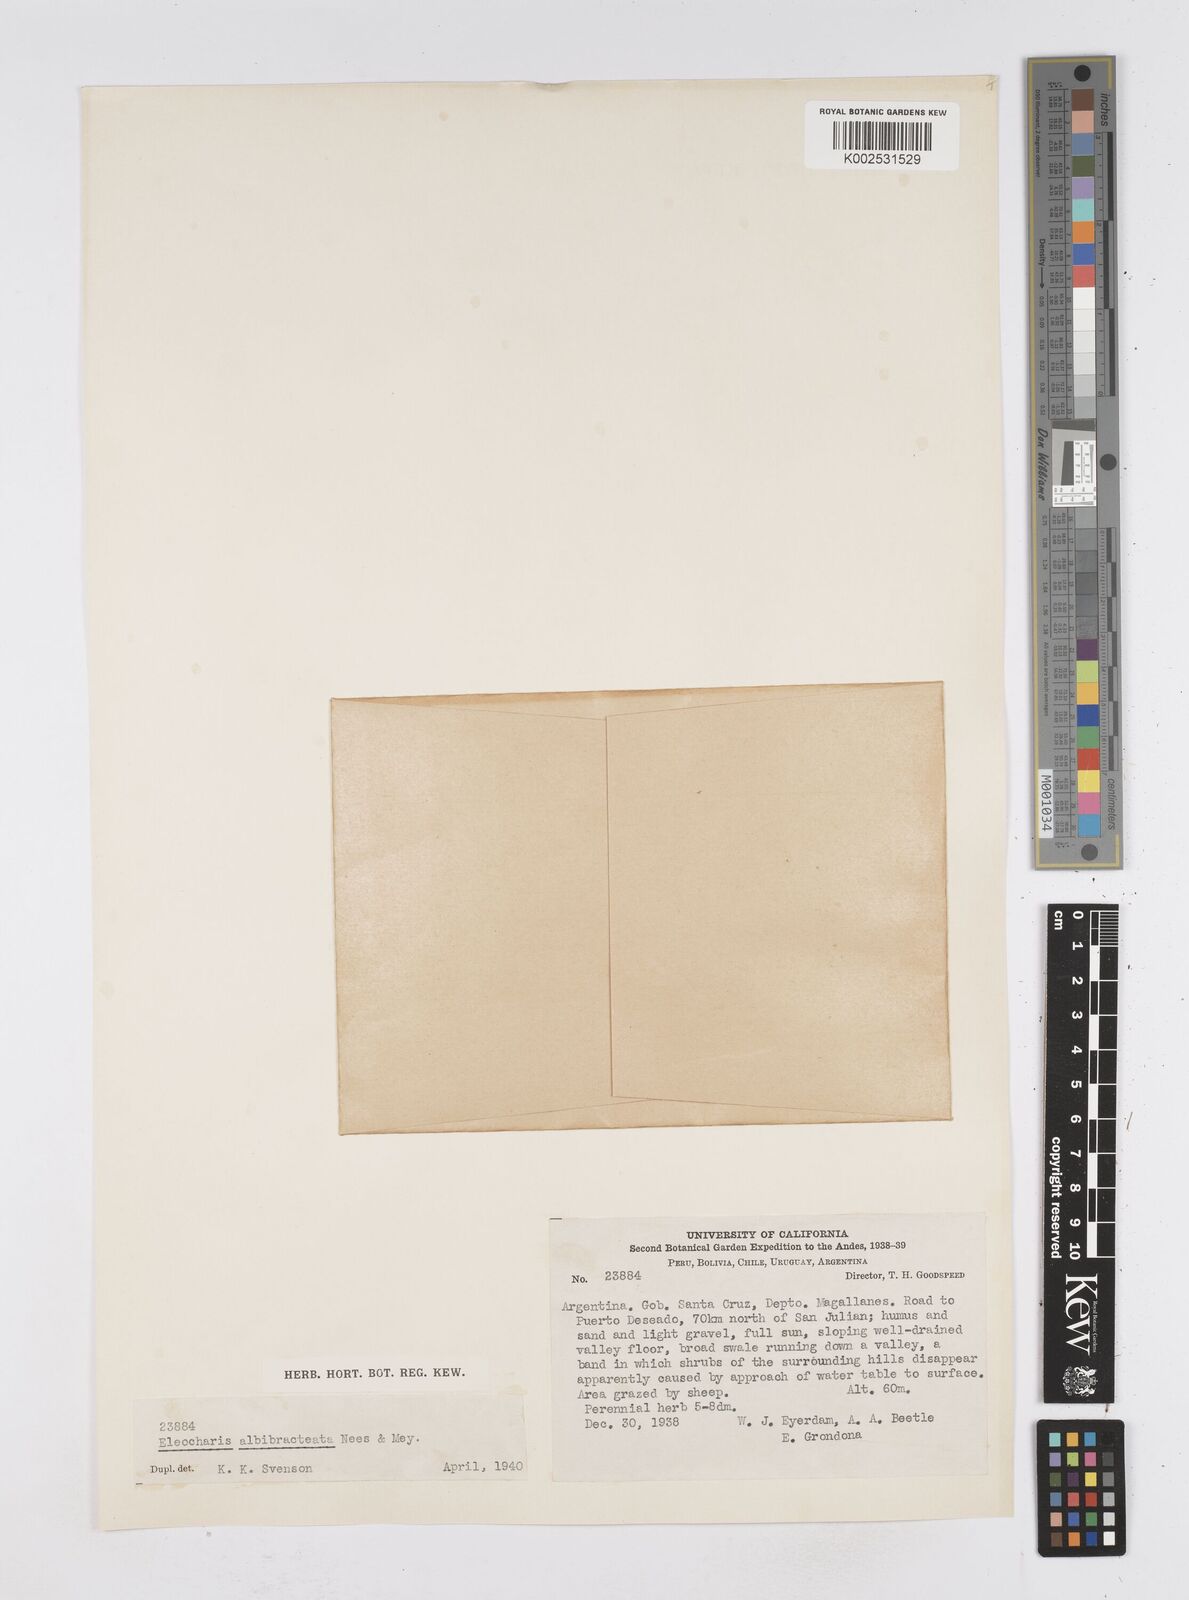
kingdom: Plantae
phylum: Tracheophyta
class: Liliopsida
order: Poales
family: Cyperaceae
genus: Eleocharis
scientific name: Eleocharis albibracteata
